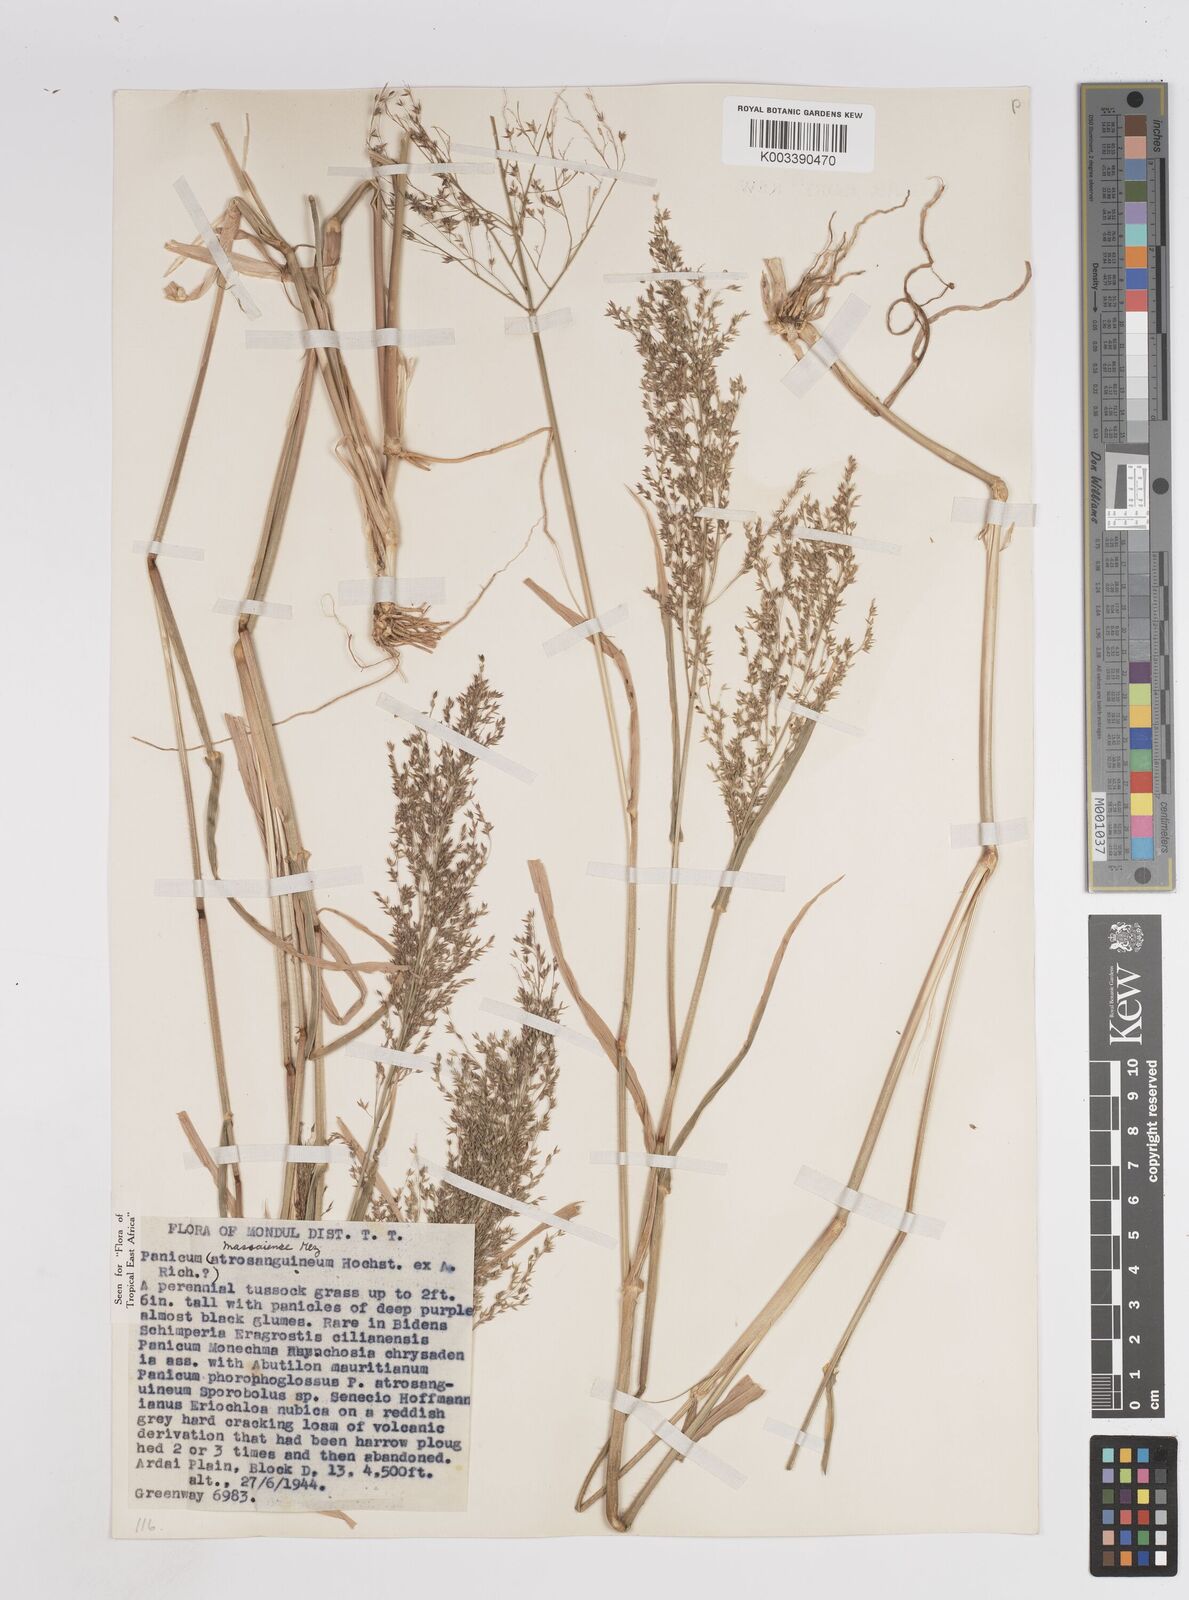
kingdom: Plantae
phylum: Tracheophyta
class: Liliopsida
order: Poales
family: Poaceae
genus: Panicum
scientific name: Panicum massaiense
